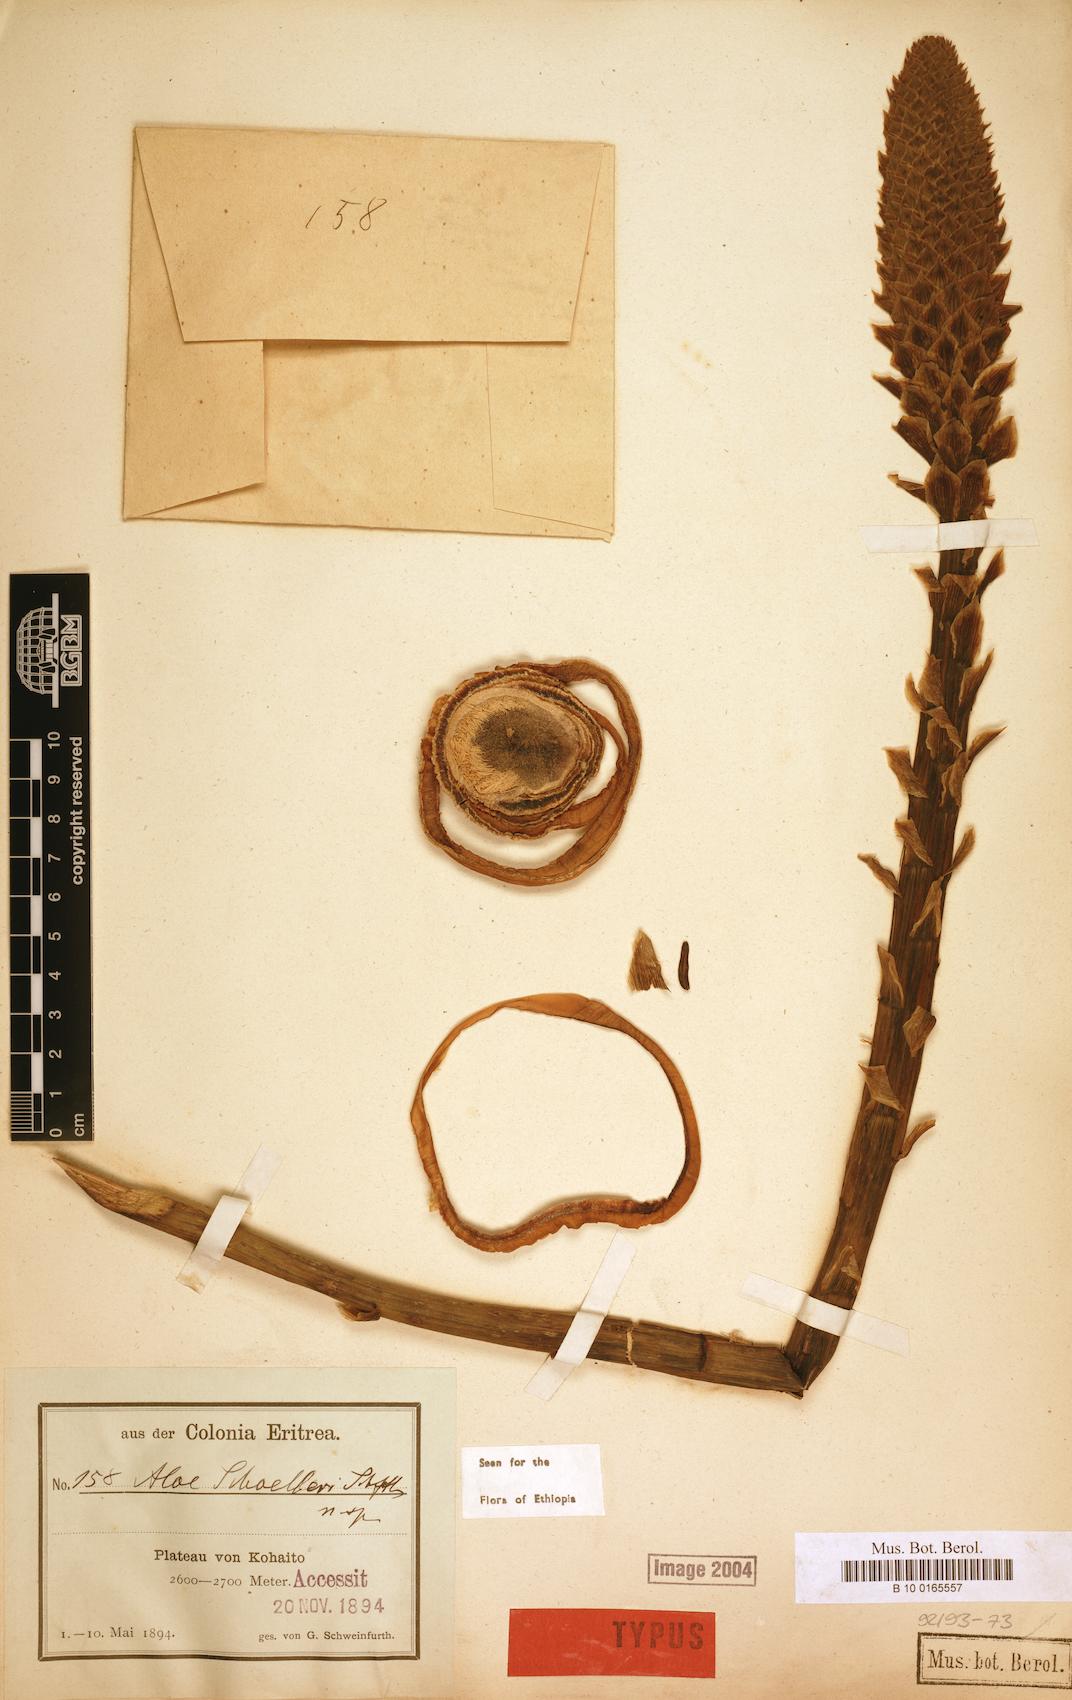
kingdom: Plantae
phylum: Tracheophyta
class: Liliopsida
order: Asparagales
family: Asphodelaceae
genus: Aloe
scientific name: Aloe schoelleri
